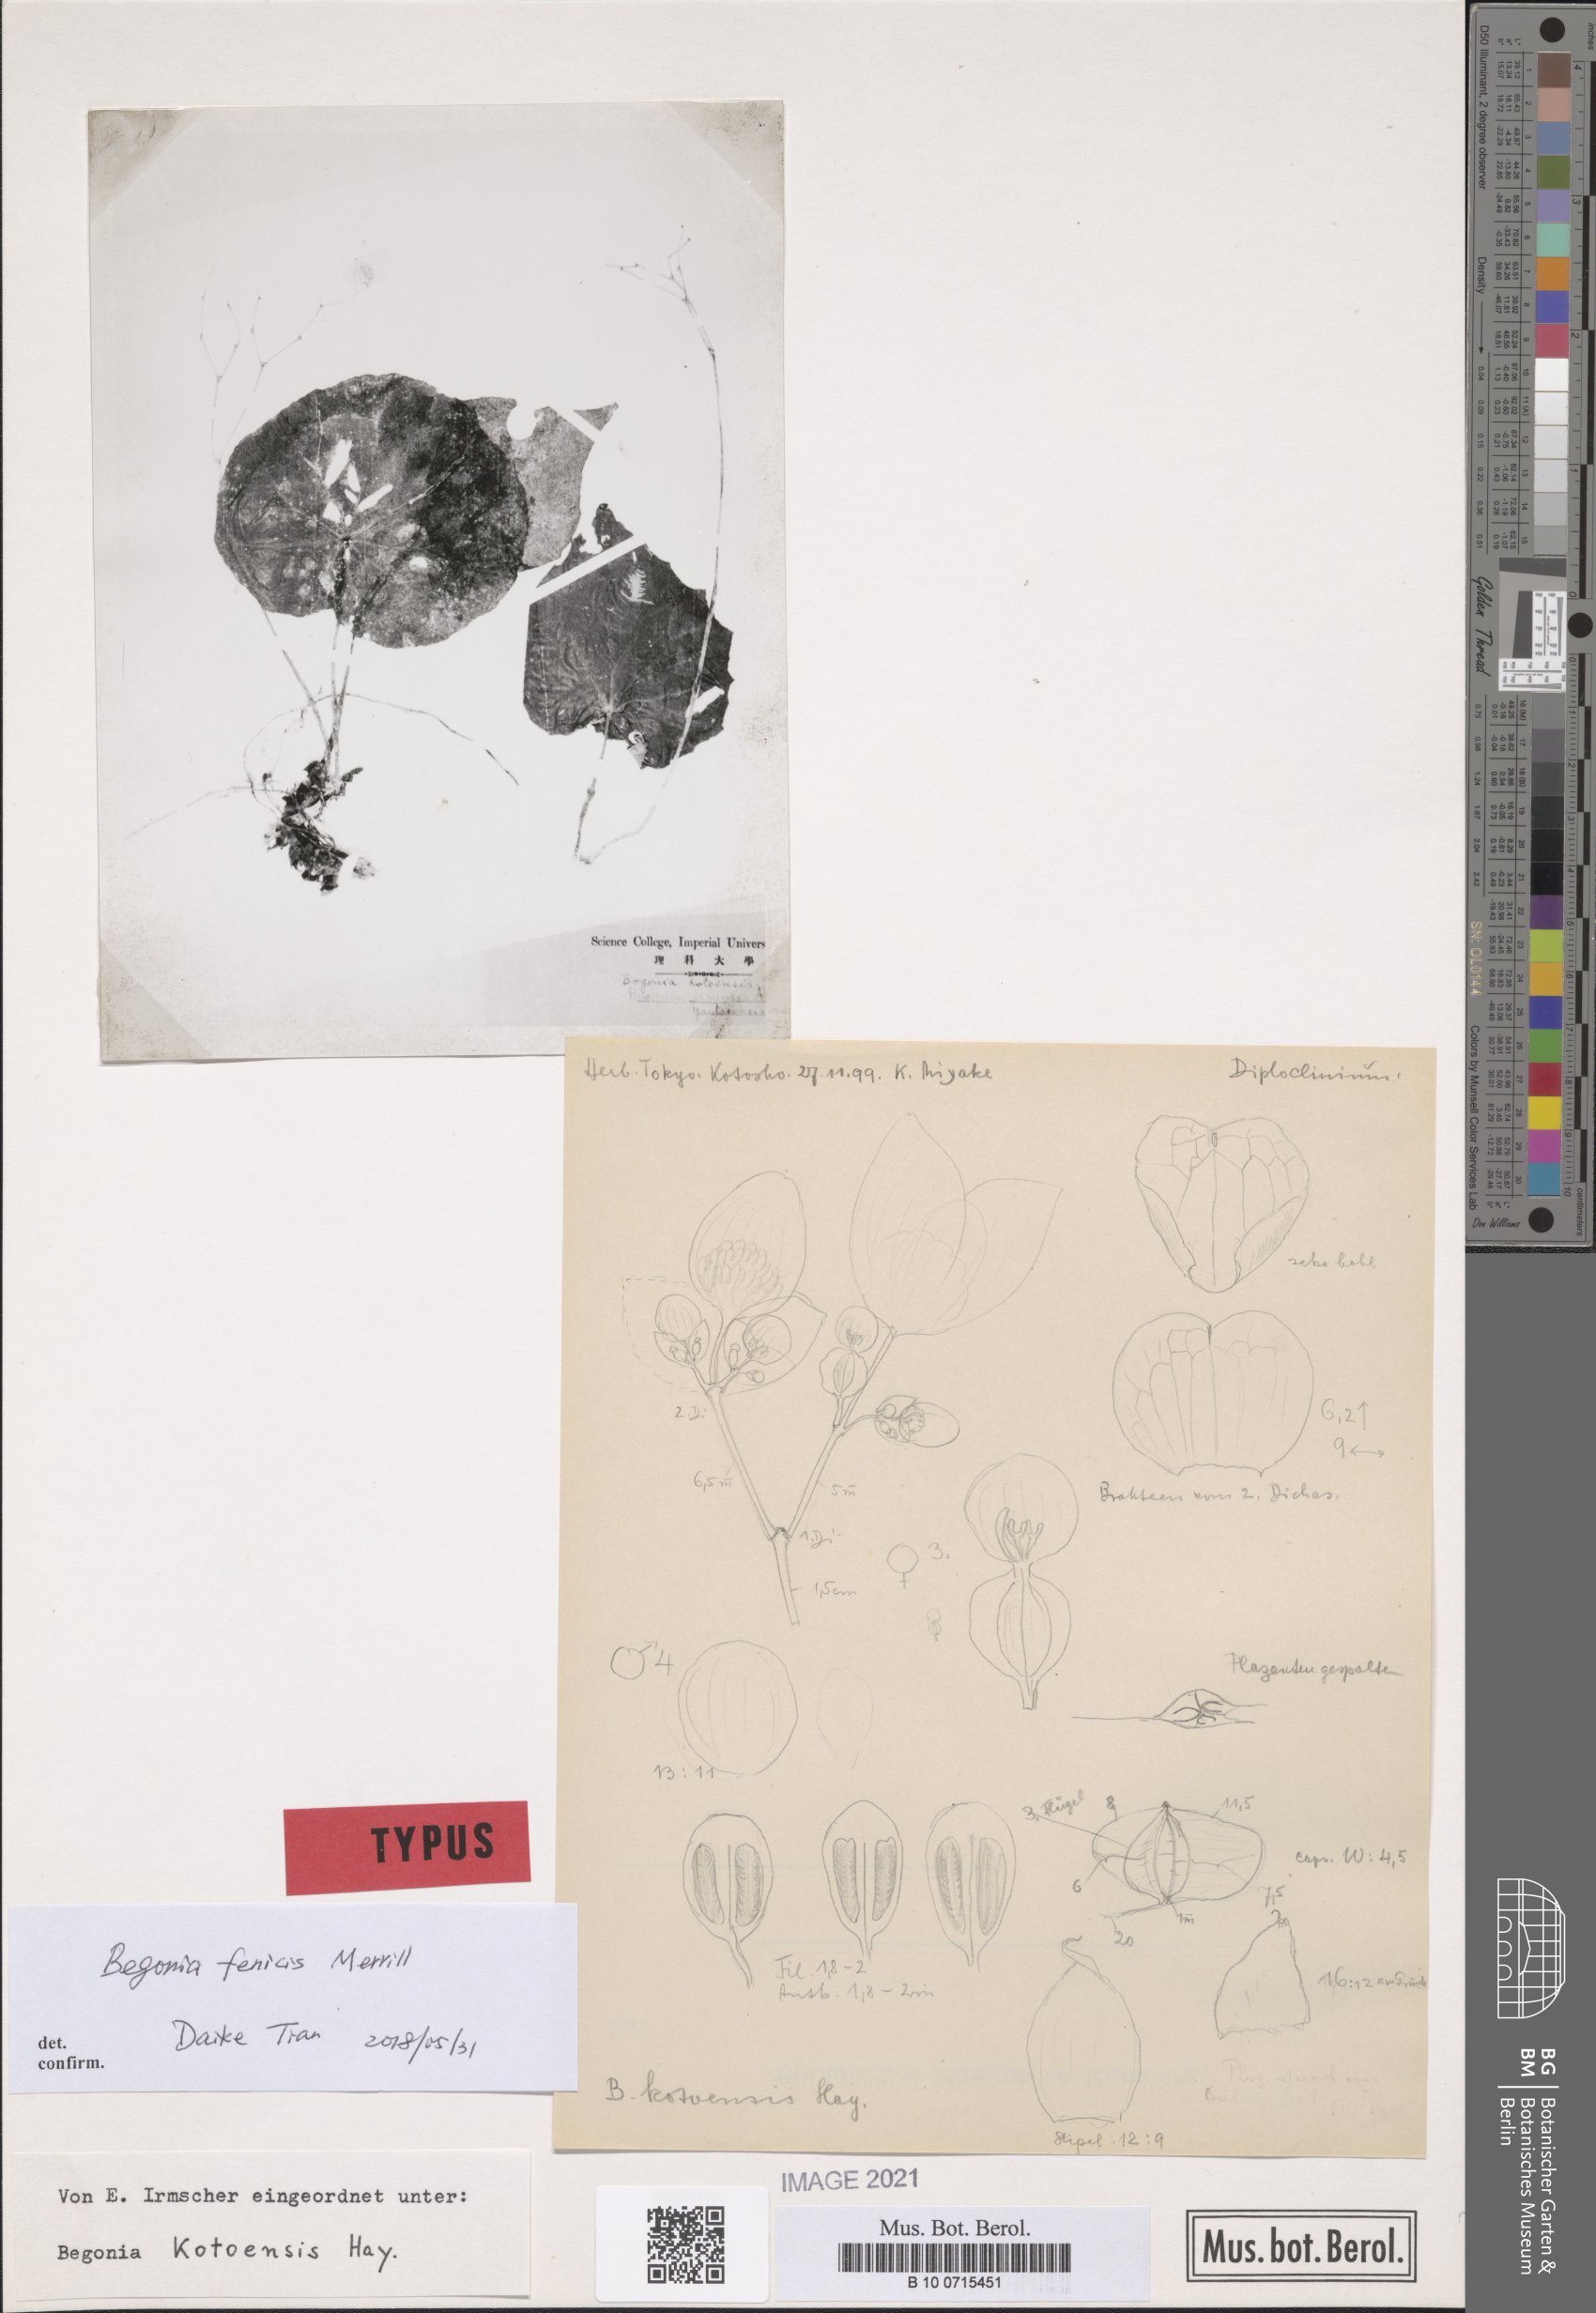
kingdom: Plantae
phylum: Tracheophyta
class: Magnoliopsida
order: Cucurbitales
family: Begoniaceae
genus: Begonia
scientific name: Begonia fenicis
